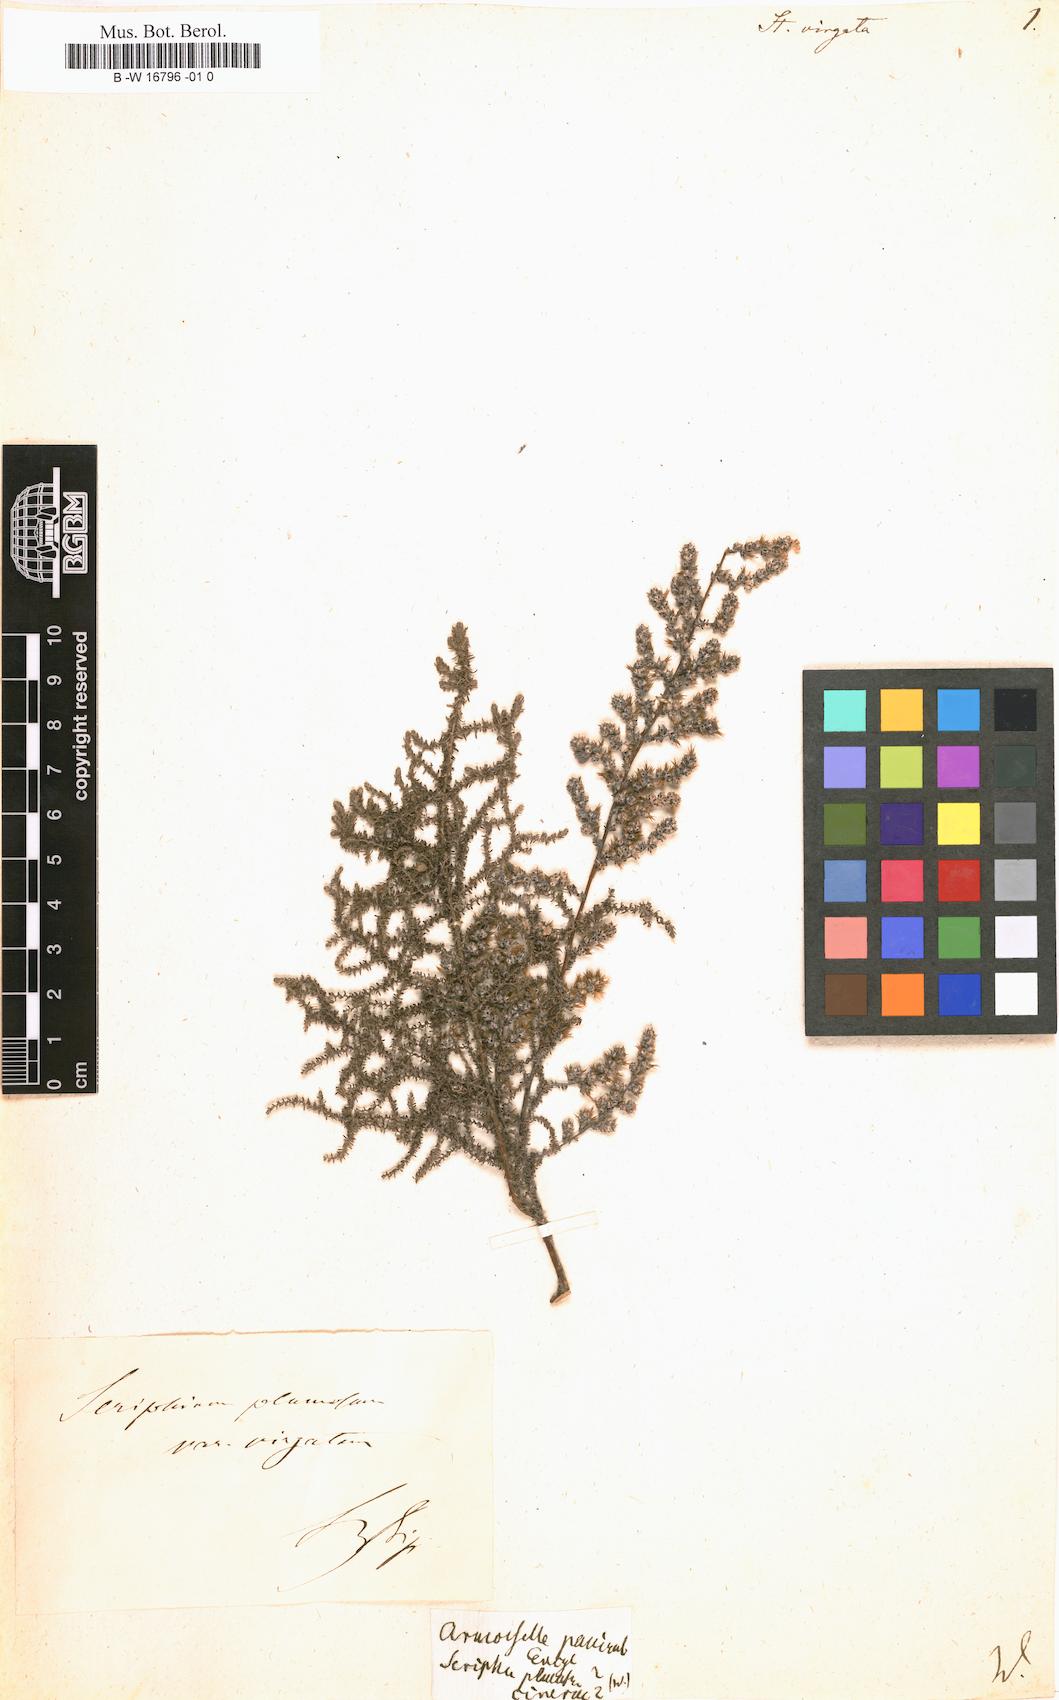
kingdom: Plantae
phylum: Tracheophyta
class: Magnoliopsida
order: Asterales
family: Asteraceae
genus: Seriphium
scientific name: Seriphium plumosum
